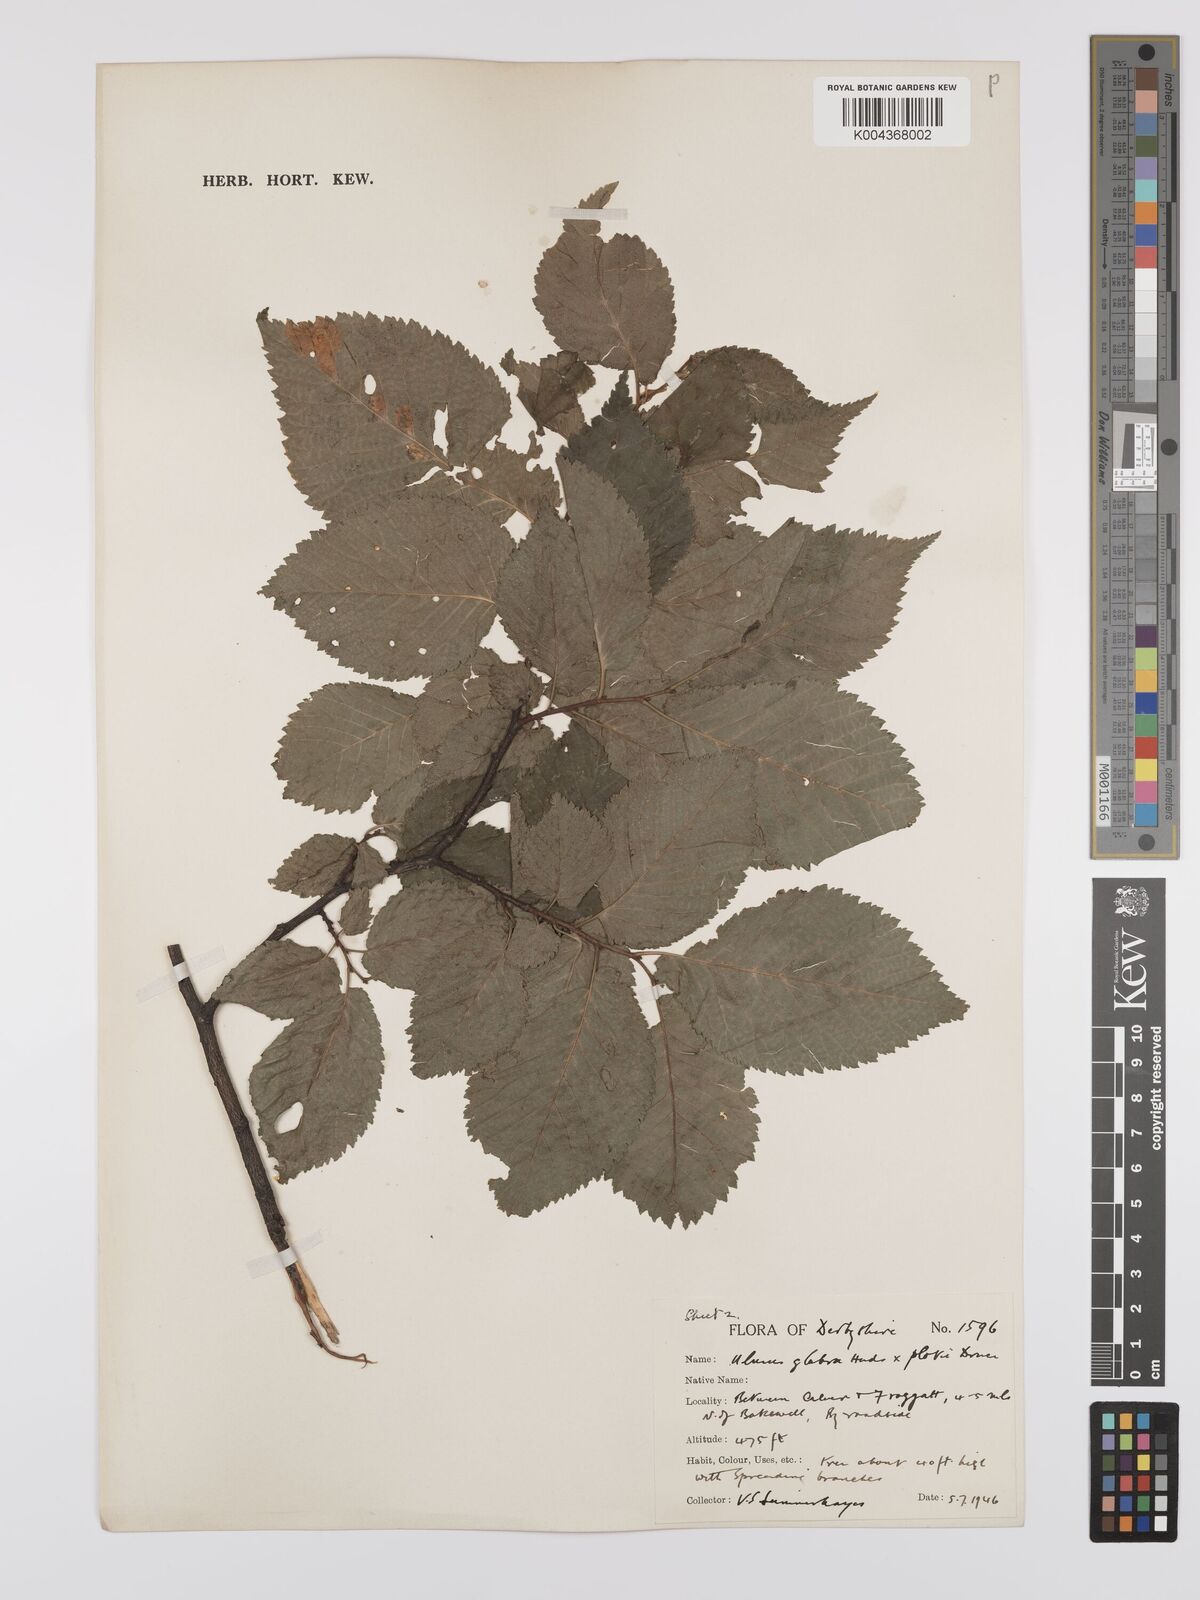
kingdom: Plantae
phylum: Tracheophyta
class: Magnoliopsida
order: Rosales
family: Ulmaceae
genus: Ulmus
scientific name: Ulmus minor
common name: Small-leaved elm
